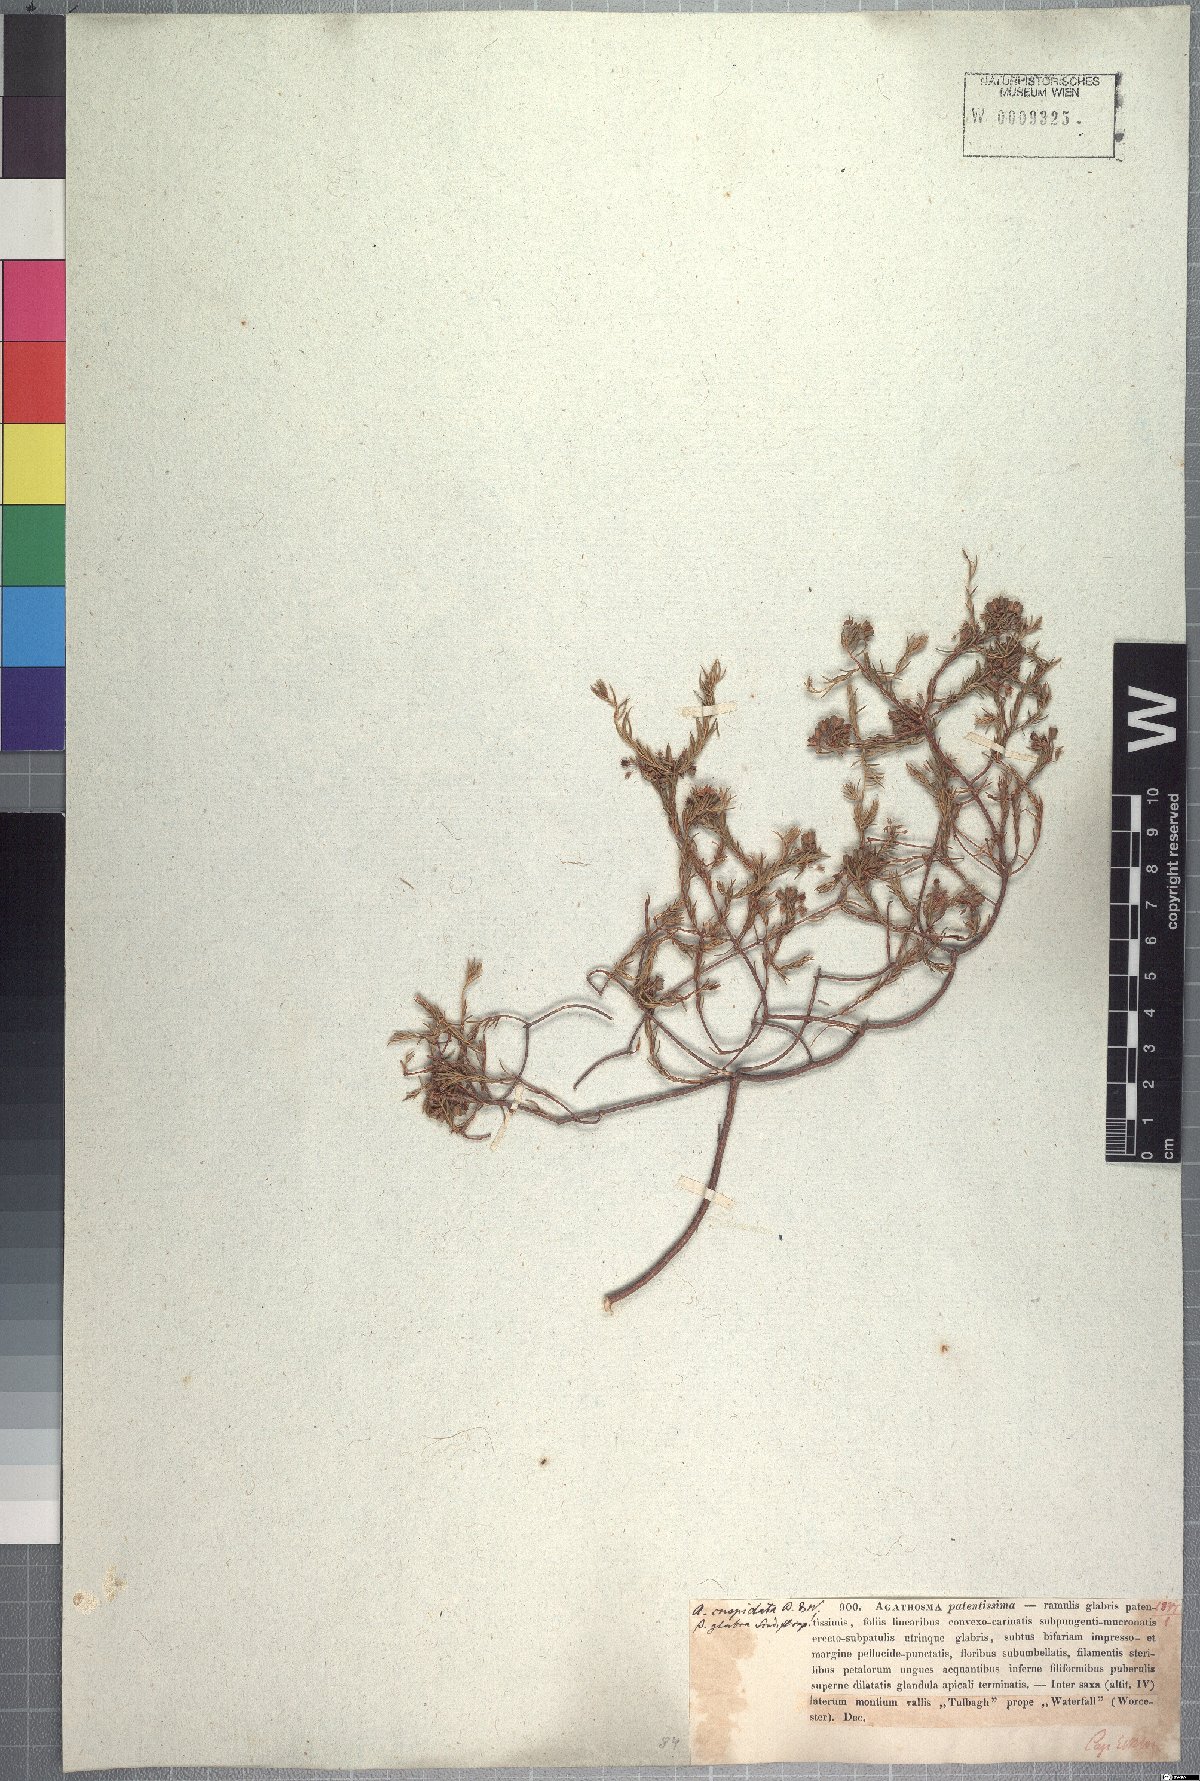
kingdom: Plantae
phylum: Tracheophyta
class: Magnoliopsida
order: Sapindales
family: Rutaceae
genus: Agathosma
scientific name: Agathosma virgata
